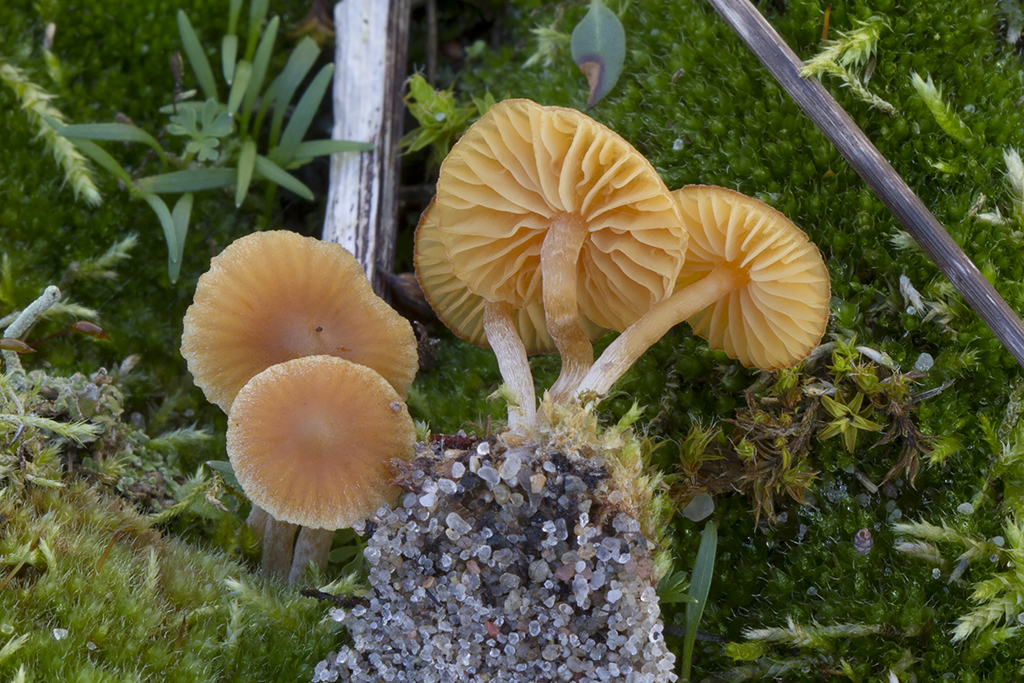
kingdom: Fungi
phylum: Basidiomycota
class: Agaricomycetes
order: Agaricales
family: Hymenogastraceae
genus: Galerina
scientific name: Galerina graminea
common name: plæne-hjelmhat
